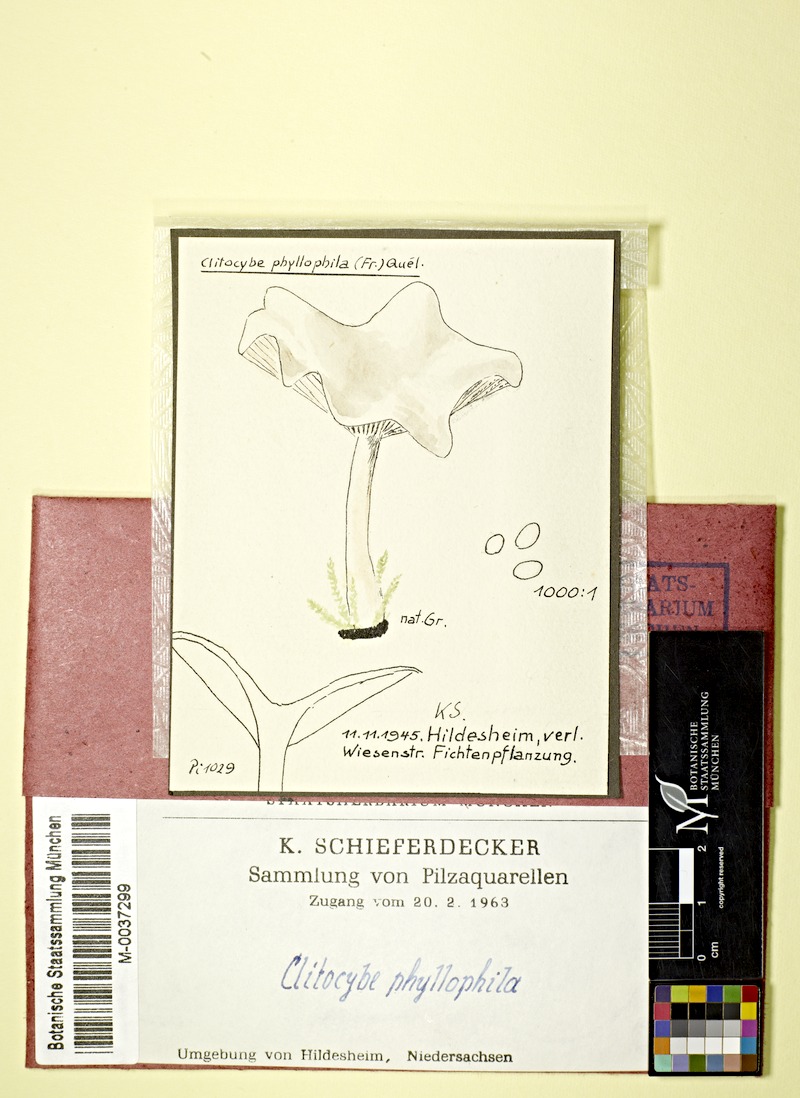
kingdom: Fungi
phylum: Basidiomycota
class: Agaricomycetes
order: Agaricales
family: Tricholomataceae
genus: Clitocybe
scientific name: Clitocybe phyllophila
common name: Frosty funnel
